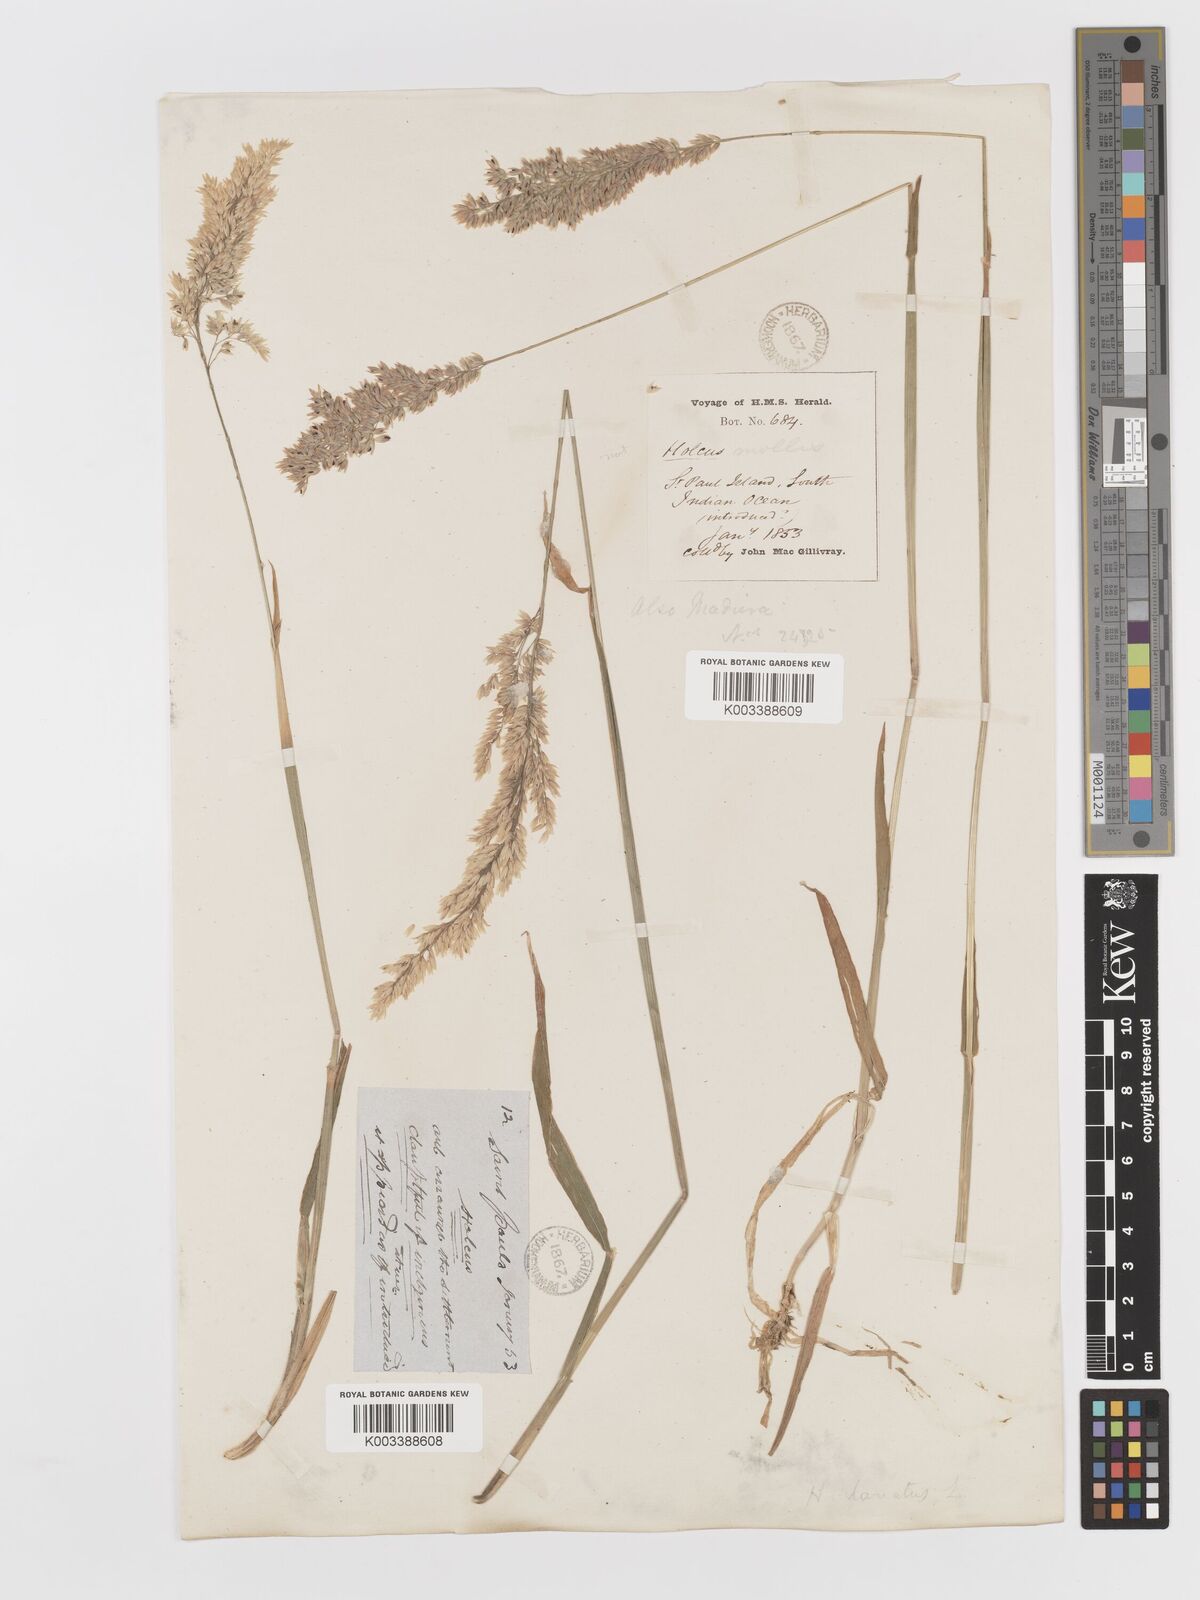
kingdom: Plantae
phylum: Tracheophyta
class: Liliopsida
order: Poales
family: Poaceae
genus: Holcus
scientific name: Holcus lanatus
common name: Yorkshire-fog
